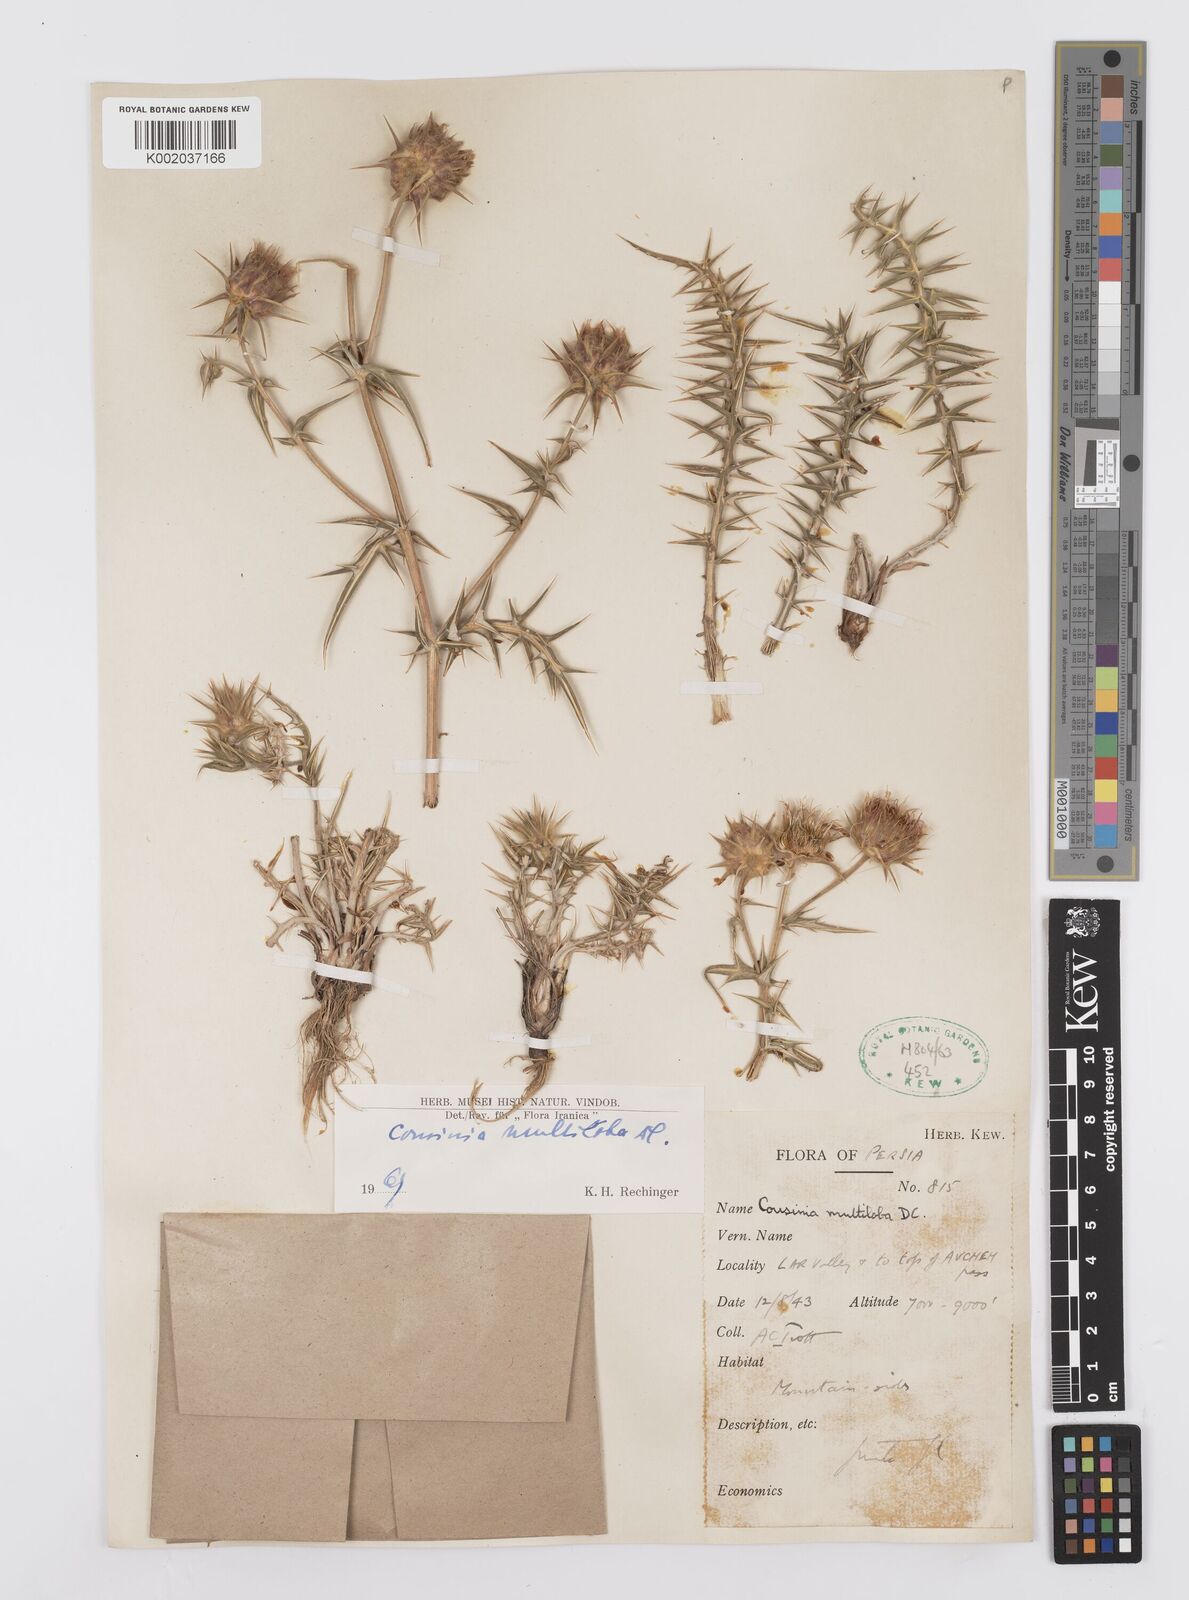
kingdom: Plantae
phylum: Tracheophyta
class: Magnoliopsida
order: Asterales
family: Asteraceae
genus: Cousinia
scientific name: Cousinia multiloba
